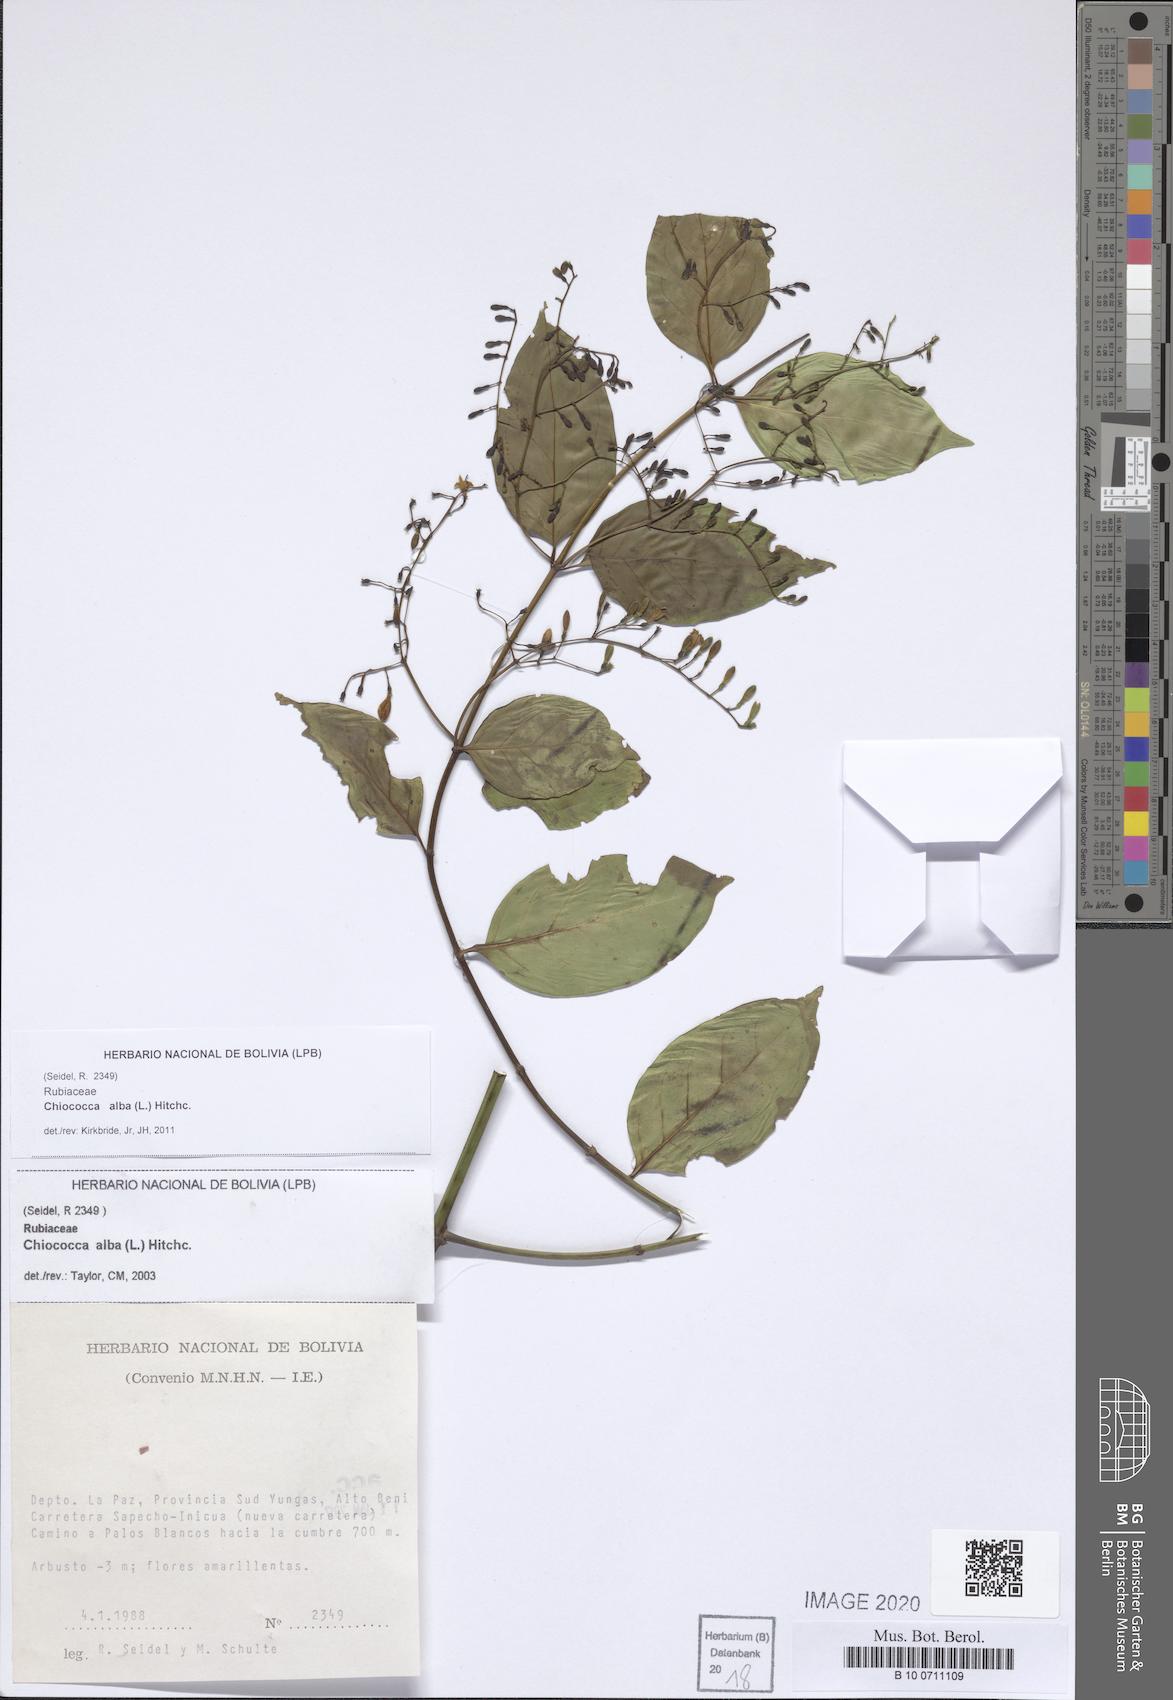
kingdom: Plantae
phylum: Tracheophyta
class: Magnoliopsida
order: Gentianales
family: Rubiaceae
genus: Chiococca
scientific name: Chiococca alba
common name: Snowberry
